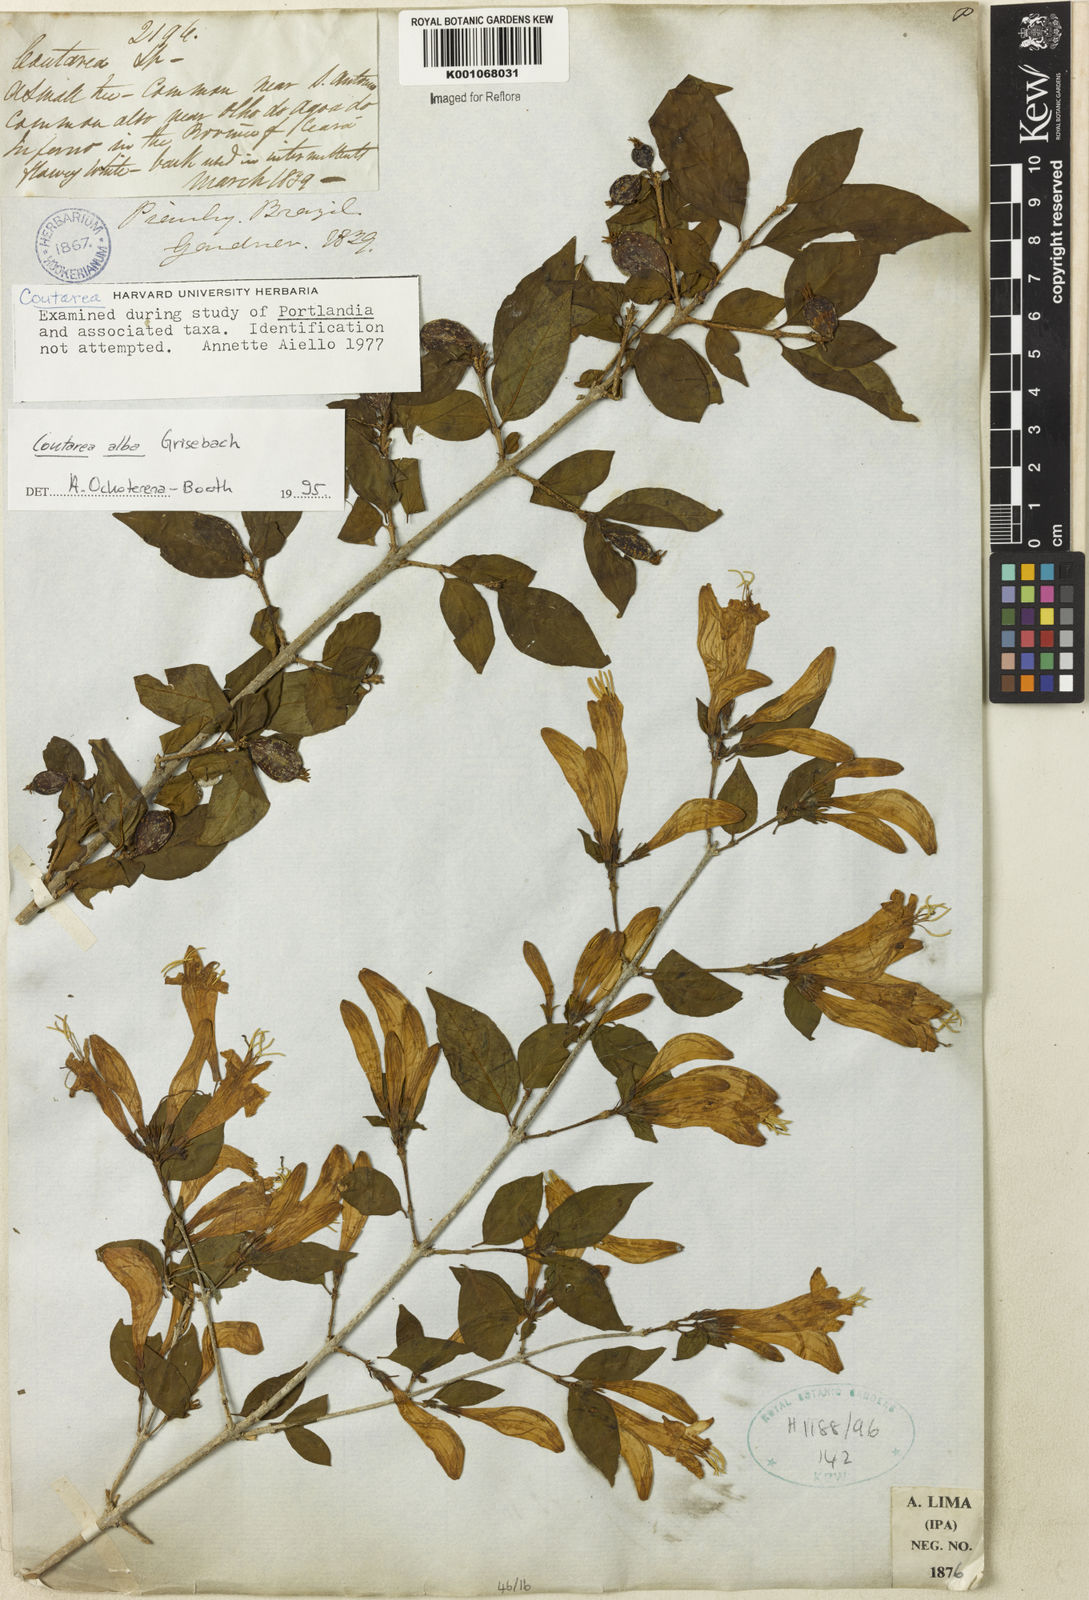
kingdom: Plantae
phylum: Tracheophyta
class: Magnoliopsida
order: Gentianales
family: Rubiaceae
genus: Coutarea
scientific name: Coutarea alba
